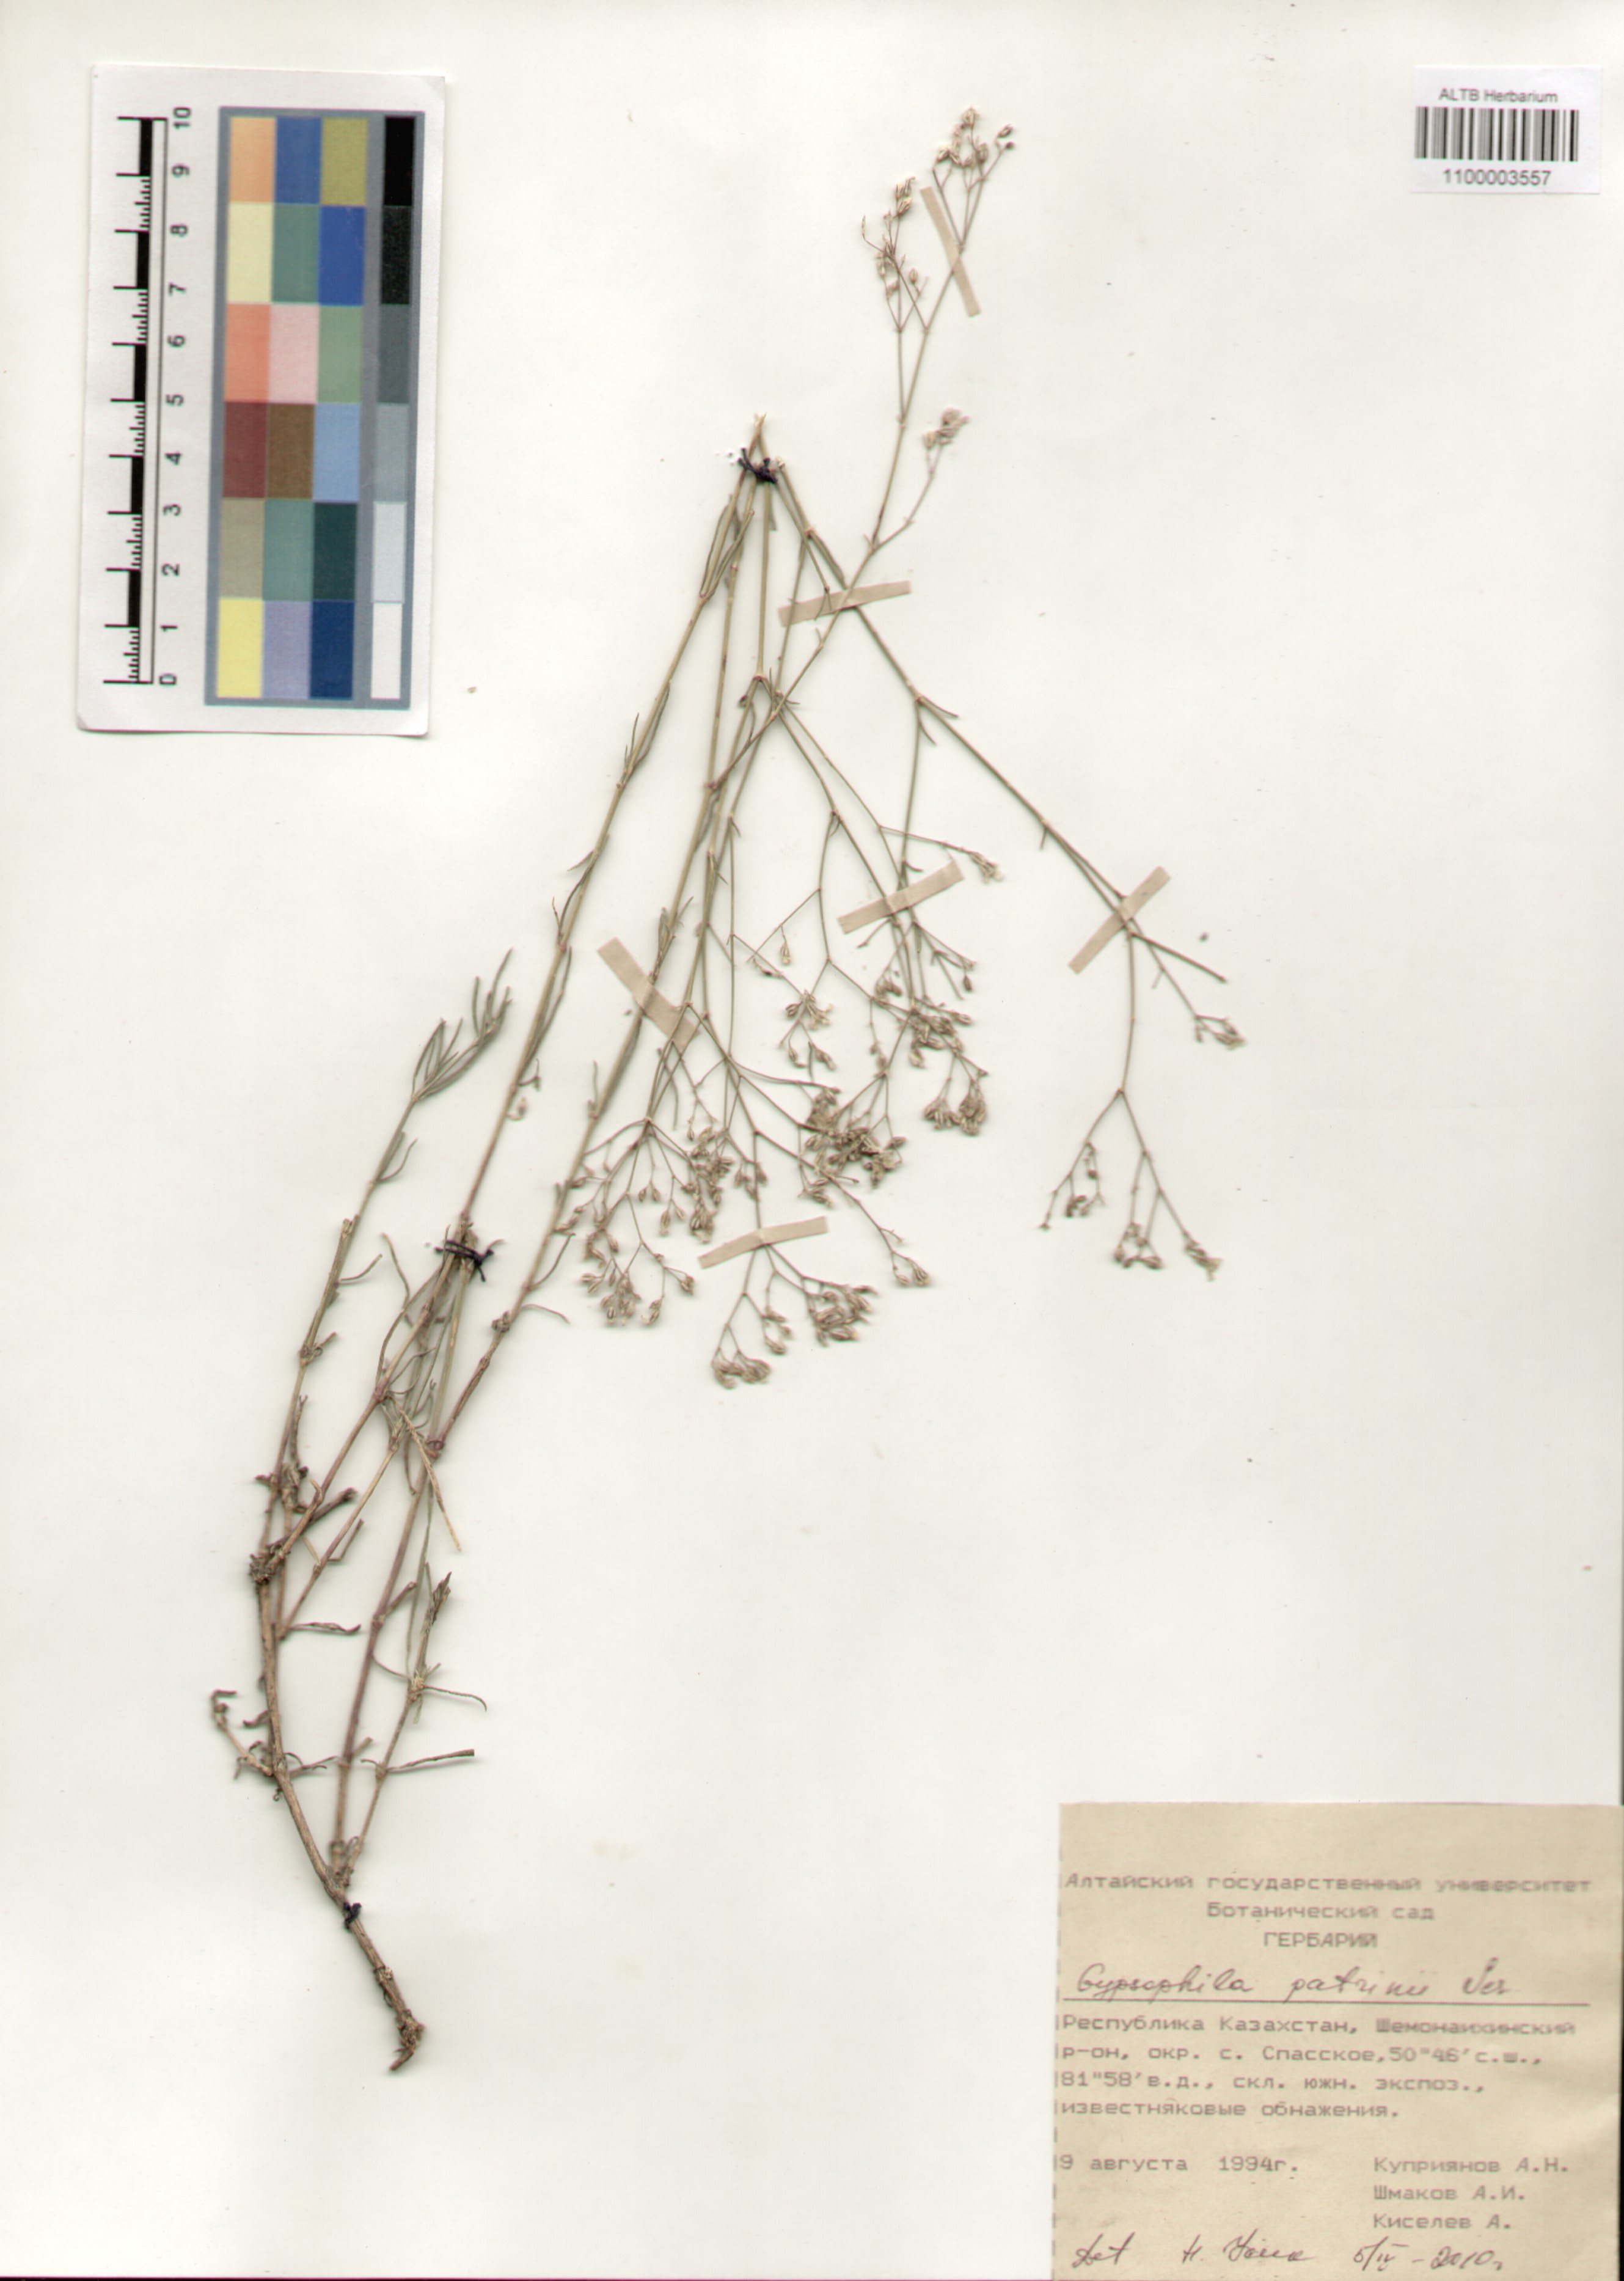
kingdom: Plantae
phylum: Tracheophyta
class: Magnoliopsida
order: Caryophyllales
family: Caryophyllaceae
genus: Gypsophila
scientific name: Gypsophila patrinii
